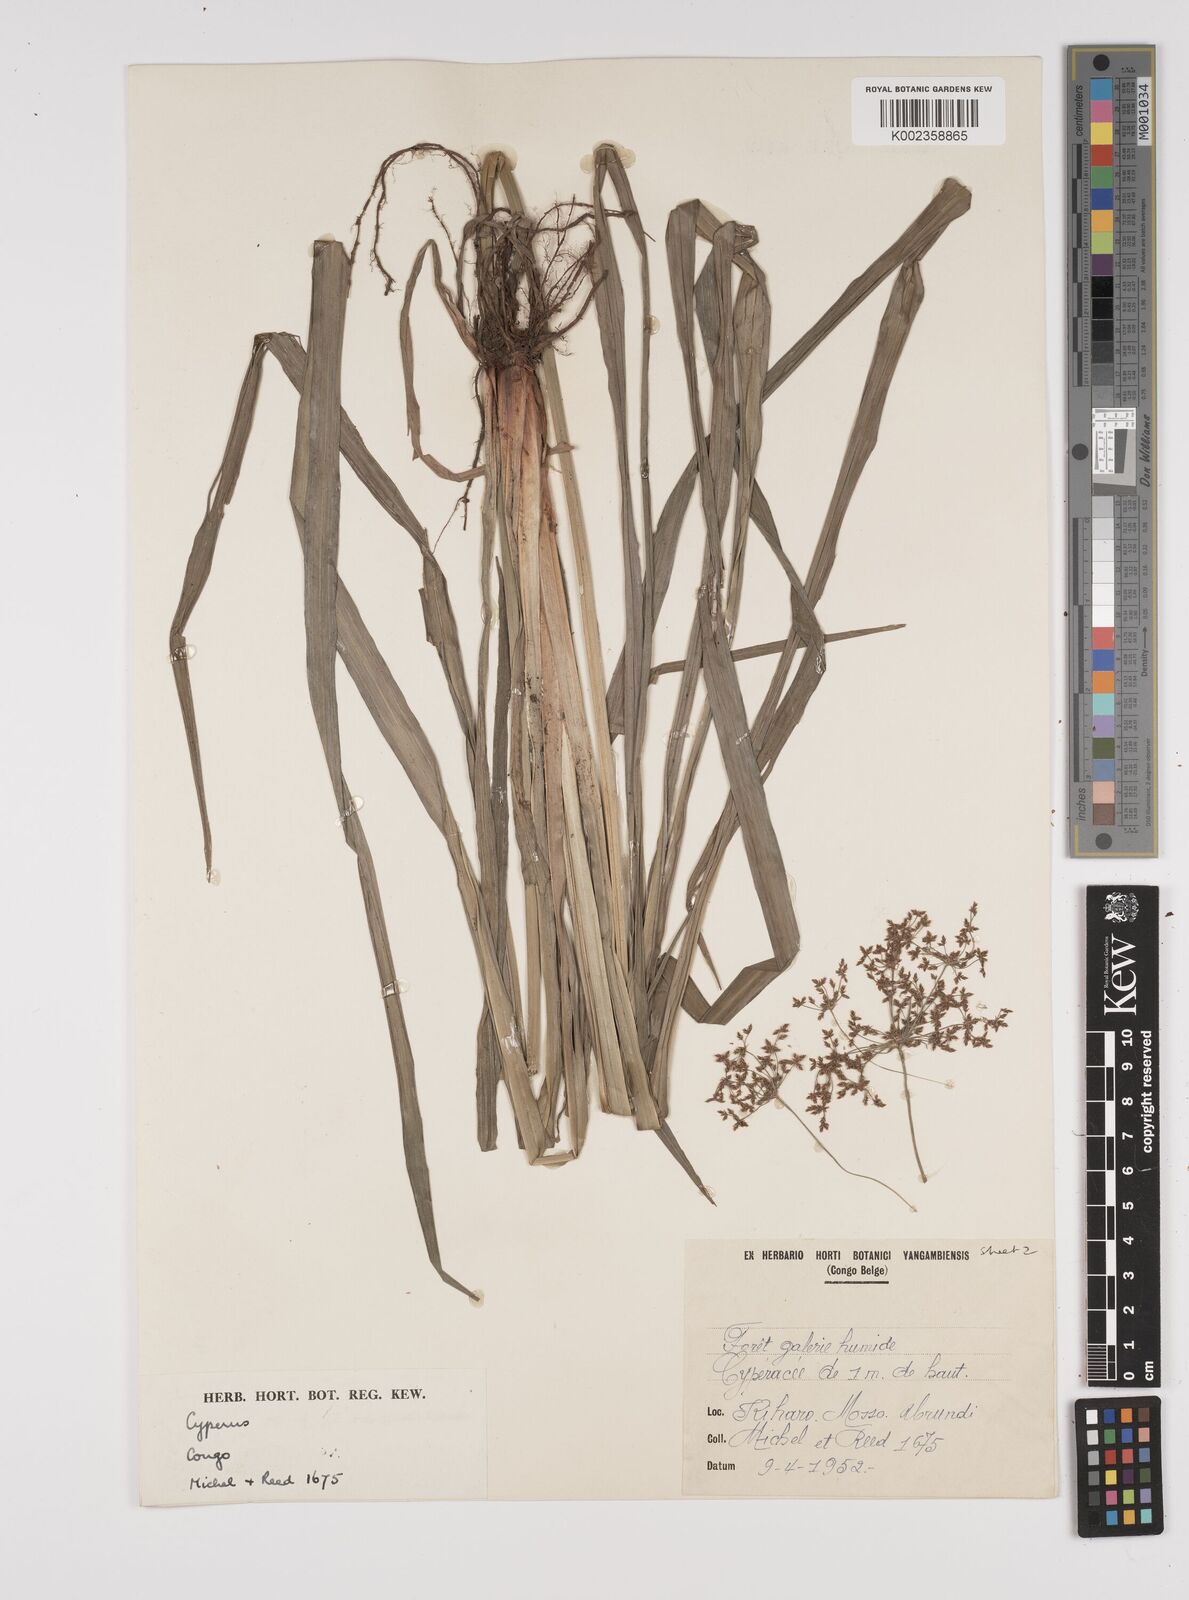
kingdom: Plantae
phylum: Tracheophyta
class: Liliopsida
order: Poales
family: Cyperaceae
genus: Cyperus
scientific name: Cyperus glaucophyllus
